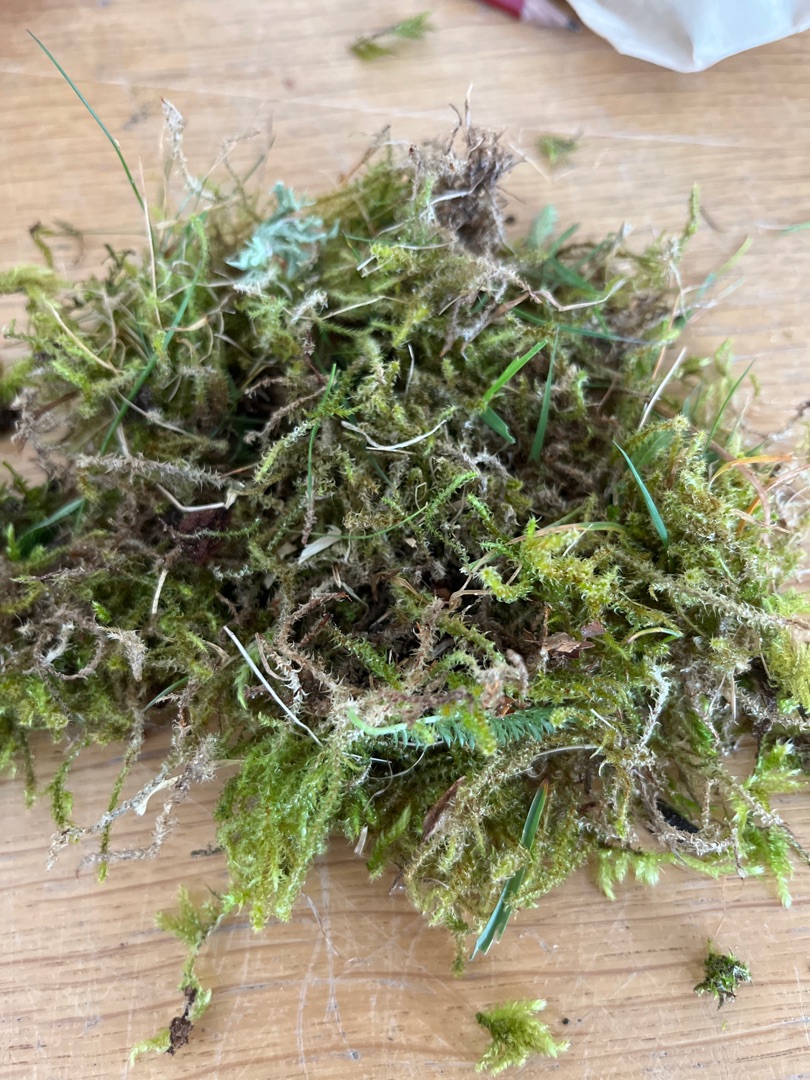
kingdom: Plantae
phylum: Bryophyta
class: Bryopsida
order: Hypnales
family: Hylocomiaceae
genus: Rhytidiadelphus
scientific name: Rhytidiadelphus squarrosus
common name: Plæne-kransemos
